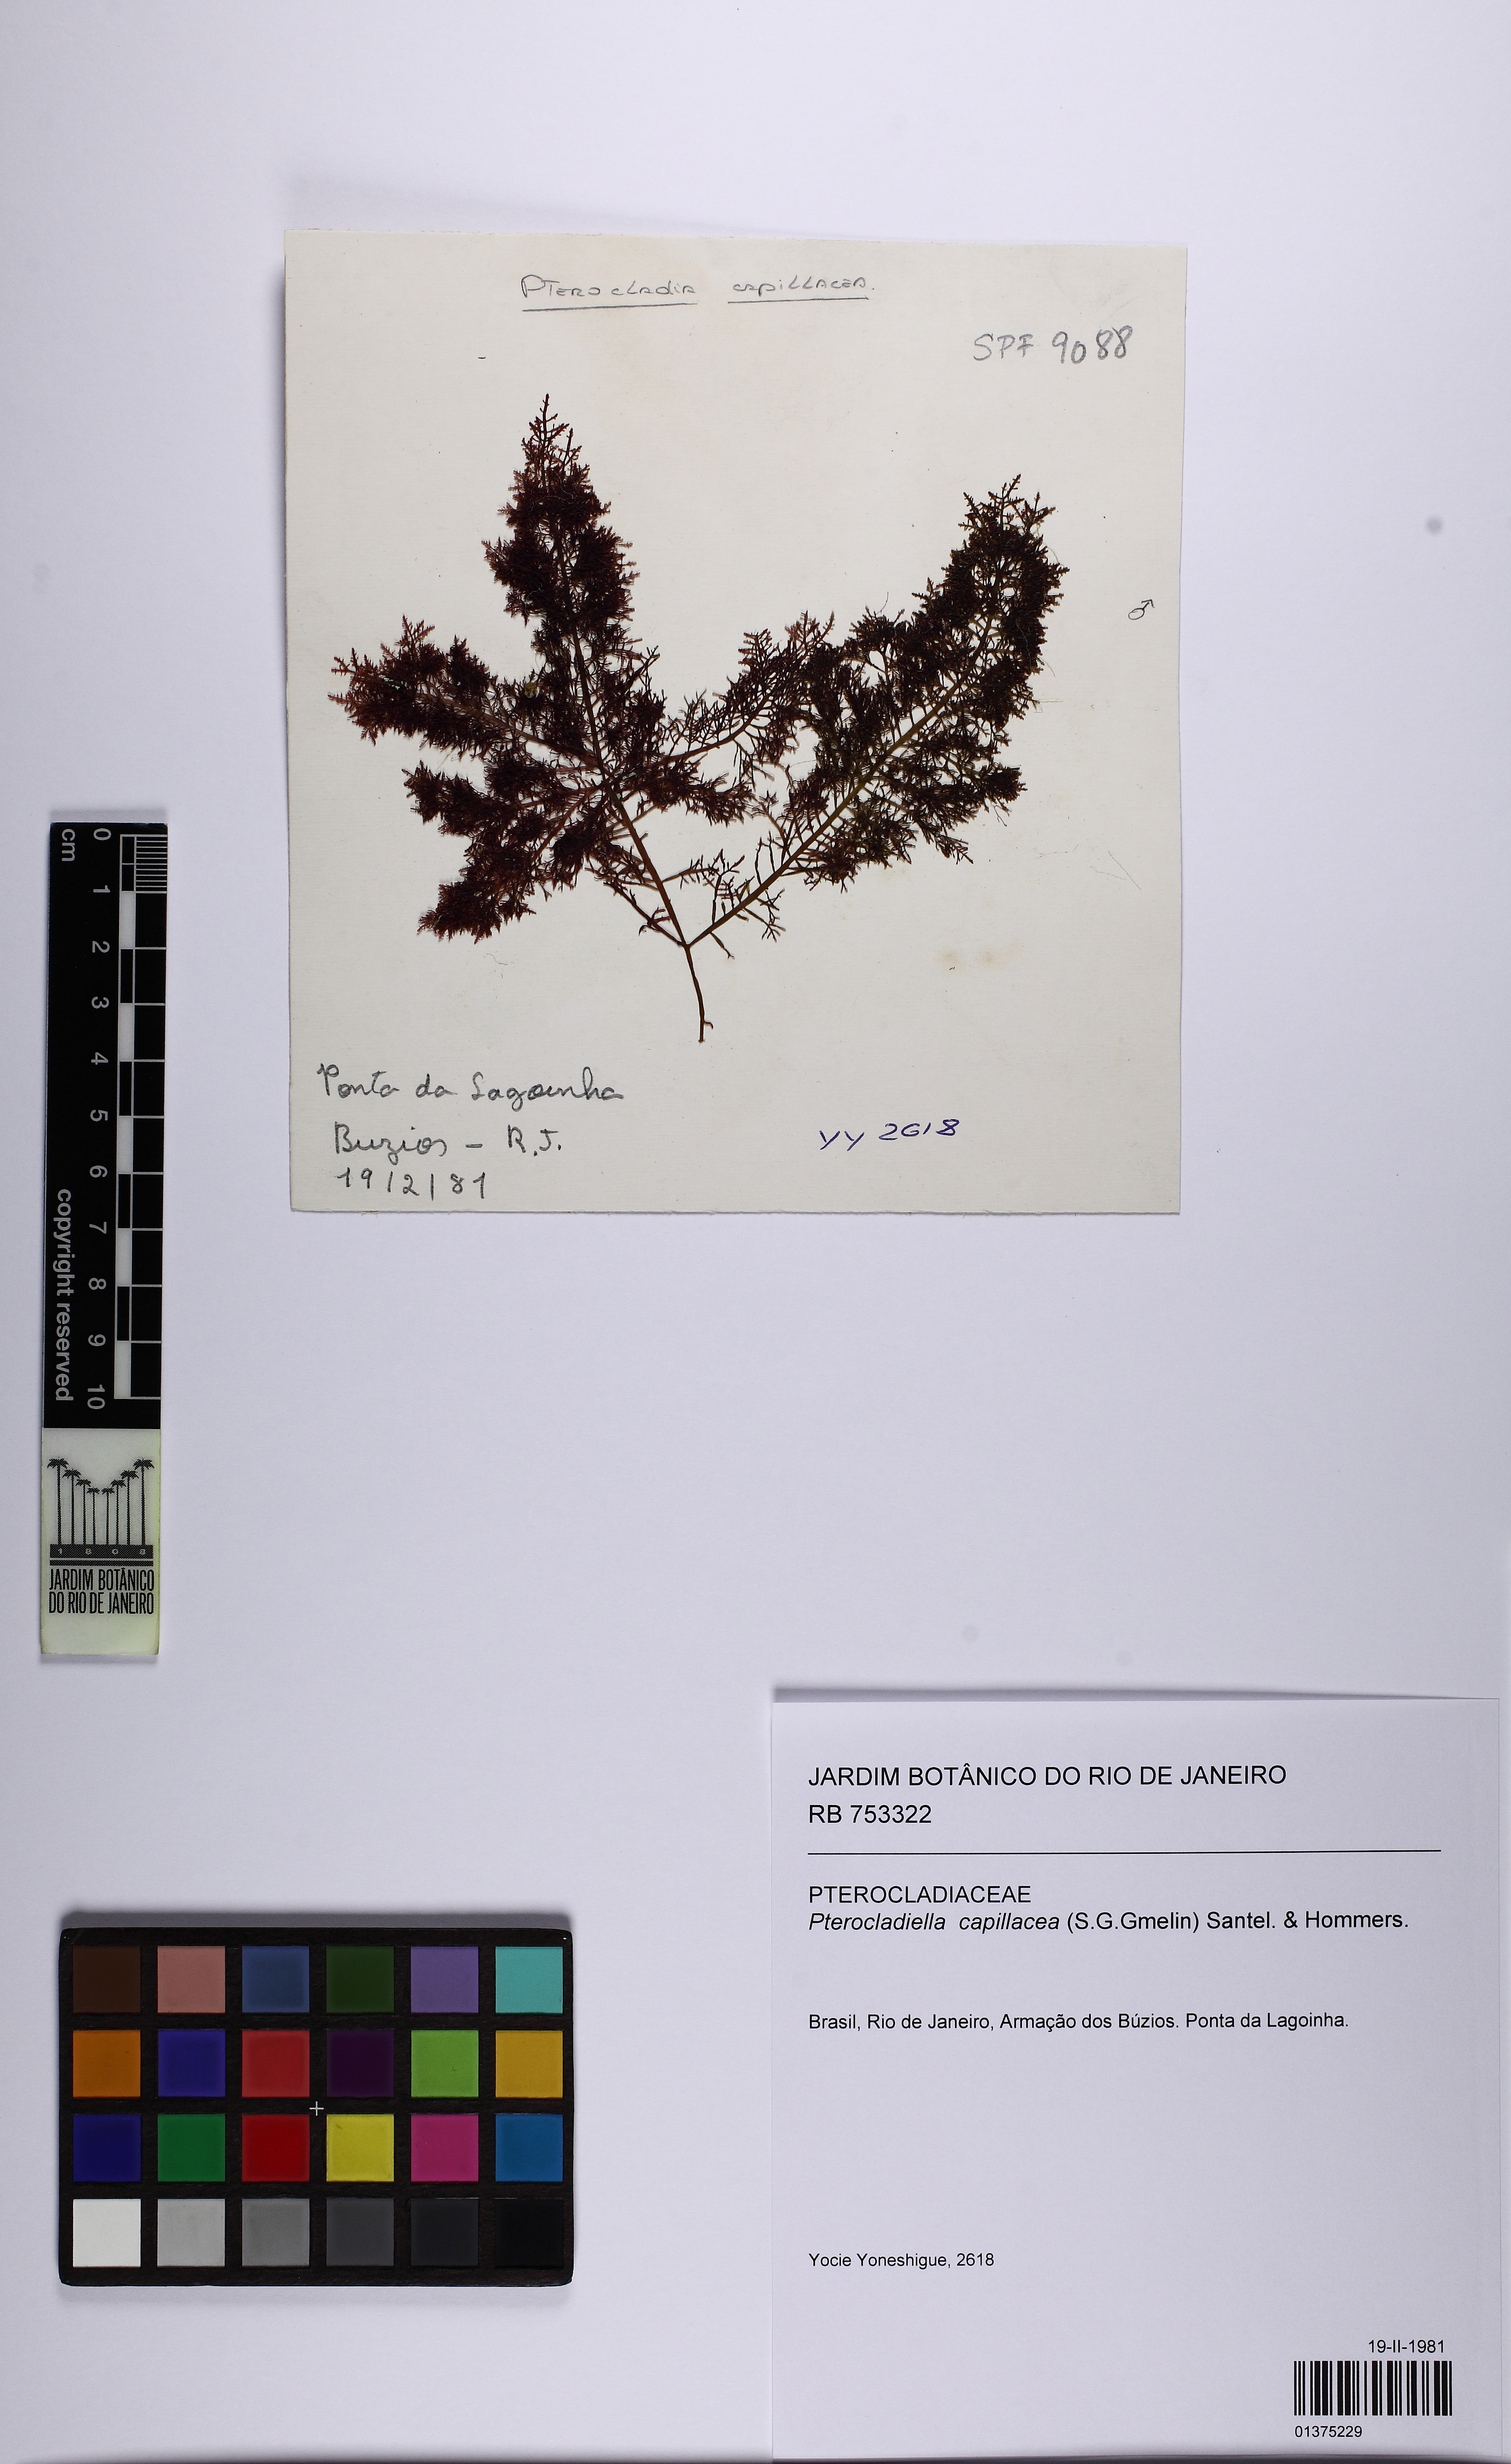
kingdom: Plantae
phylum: Rhodophyta
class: Florideophyceae
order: Gelidiales
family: Pterocladiaceae
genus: Pterocladiella
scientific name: Pterocladiella capillacea
